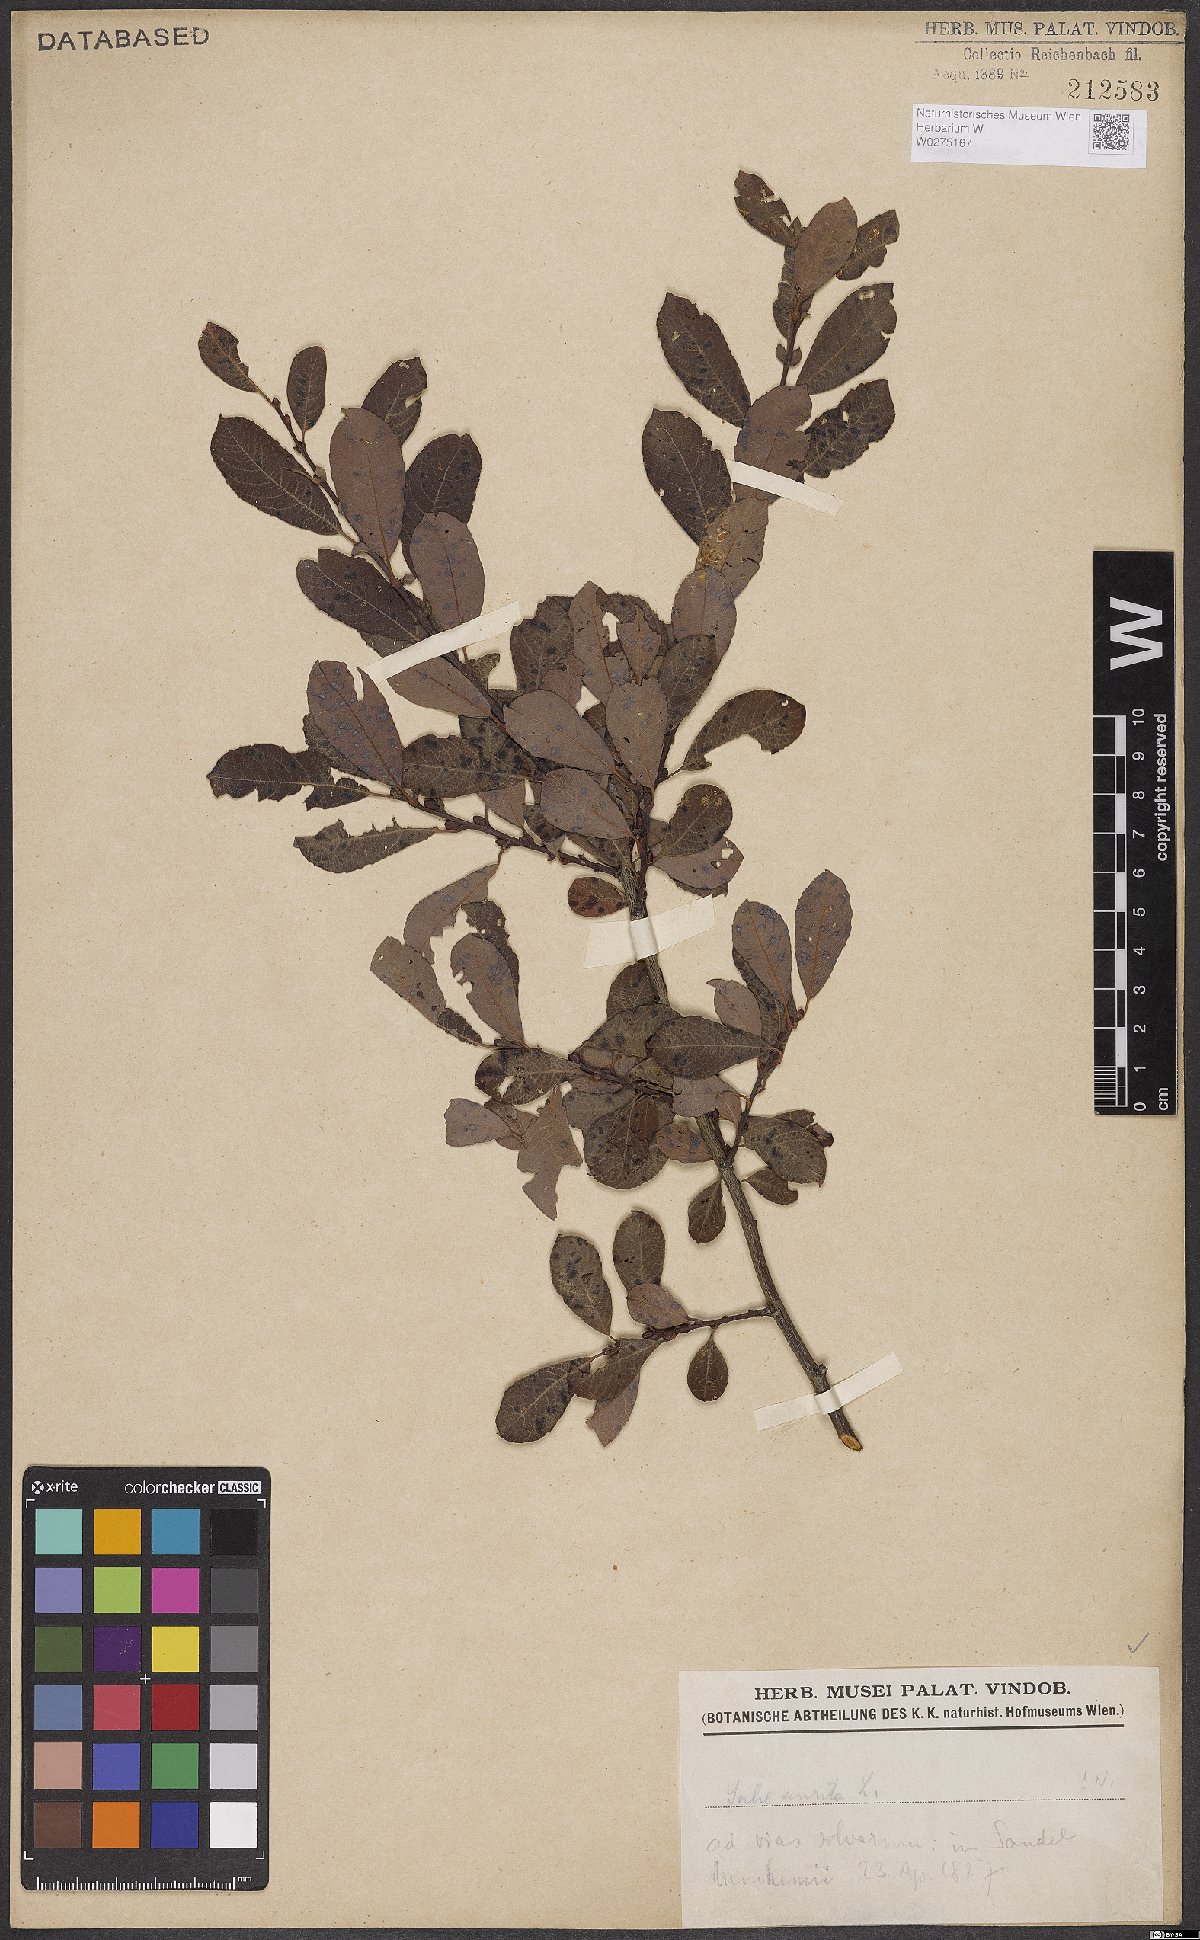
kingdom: Plantae
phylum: Tracheophyta
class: Magnoliopsida
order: Malpighiales
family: Salicaceae
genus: Salix
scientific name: Salix aurita
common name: Eared willow
